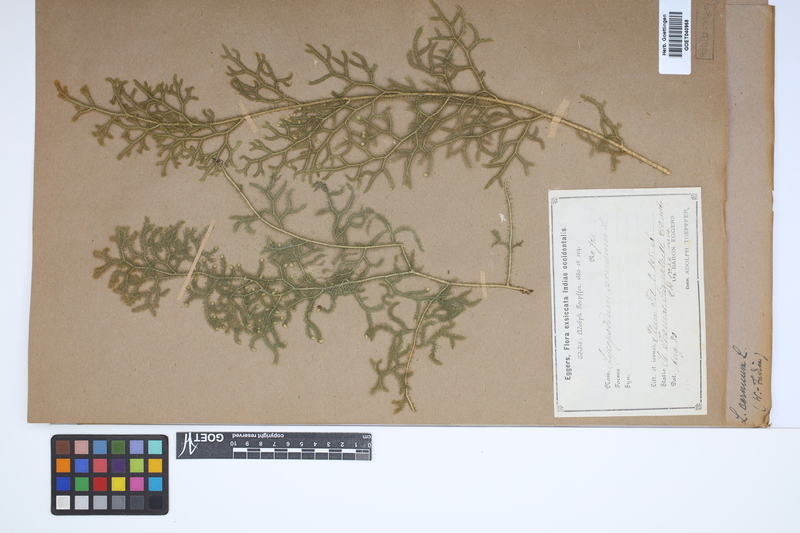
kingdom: Plantae
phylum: Tracheophyta
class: Lycopodiopsida
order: Lycopodiales
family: Lycopodiaceae
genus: Palhinhaea
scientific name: Palhinhaea cernua
